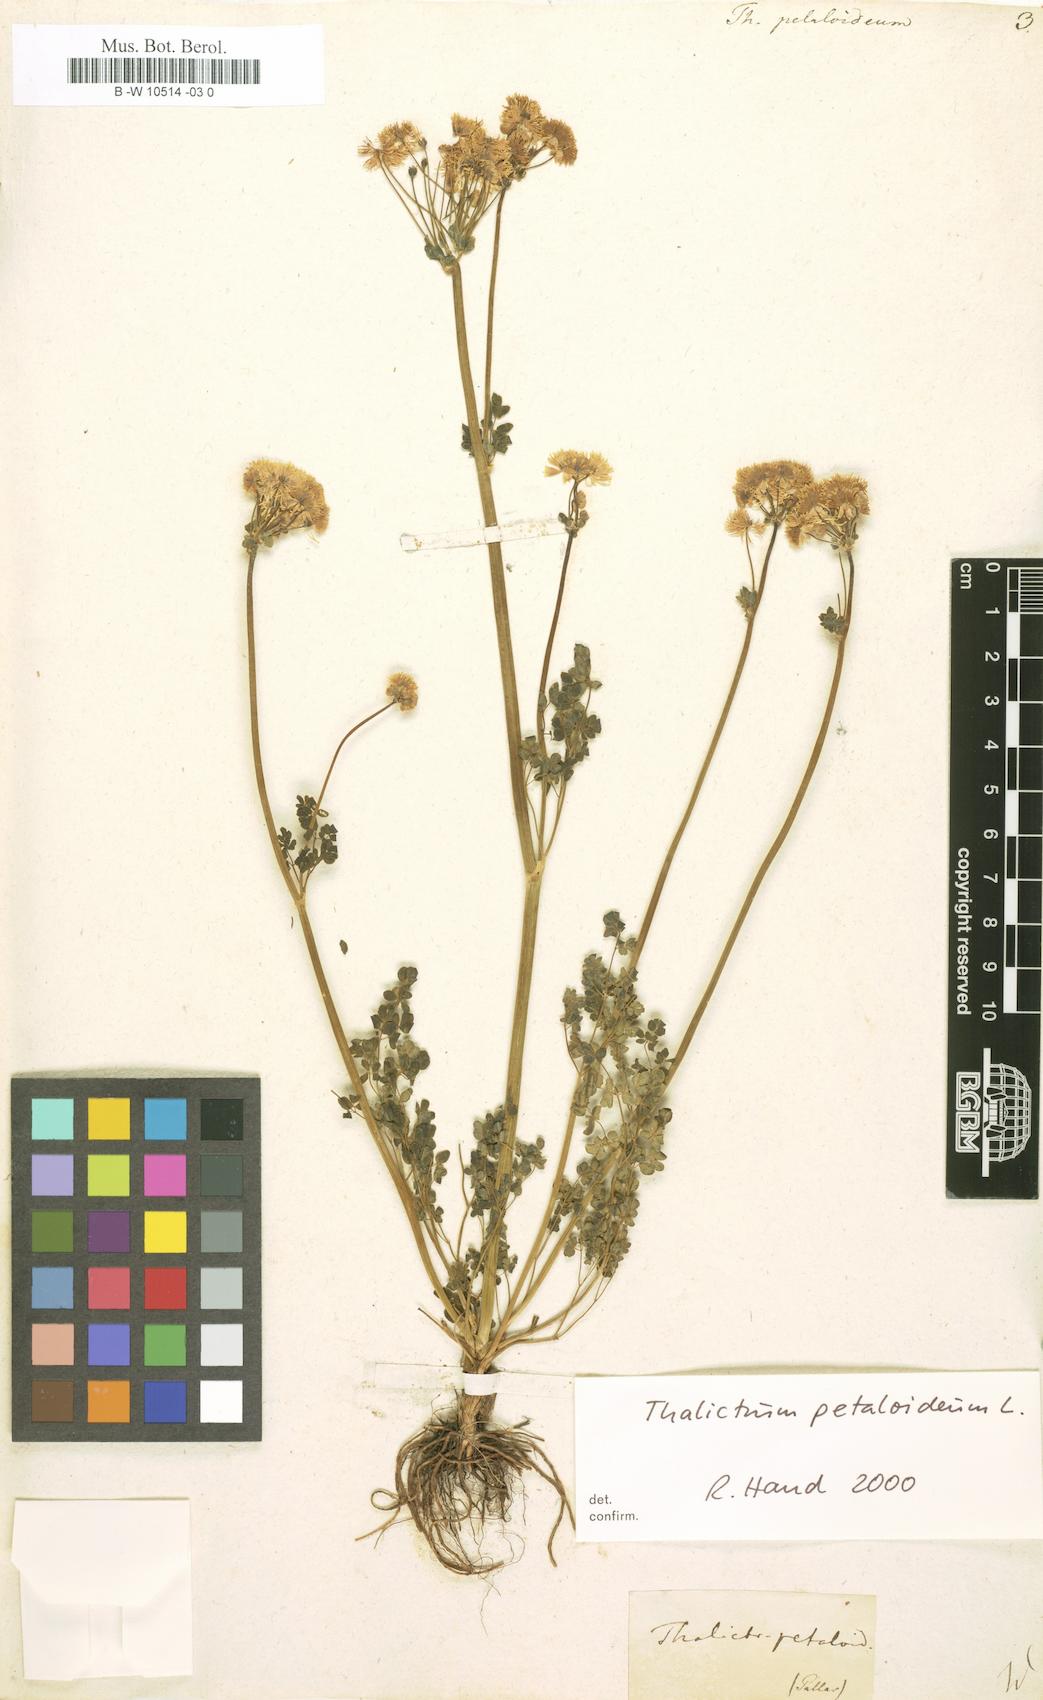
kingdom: Plantae
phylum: Tracheophyta
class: Magnoliopsida
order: Ranunculales
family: Ranunculaceae
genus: Thalictrum
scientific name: Thalictrum petaloideum
